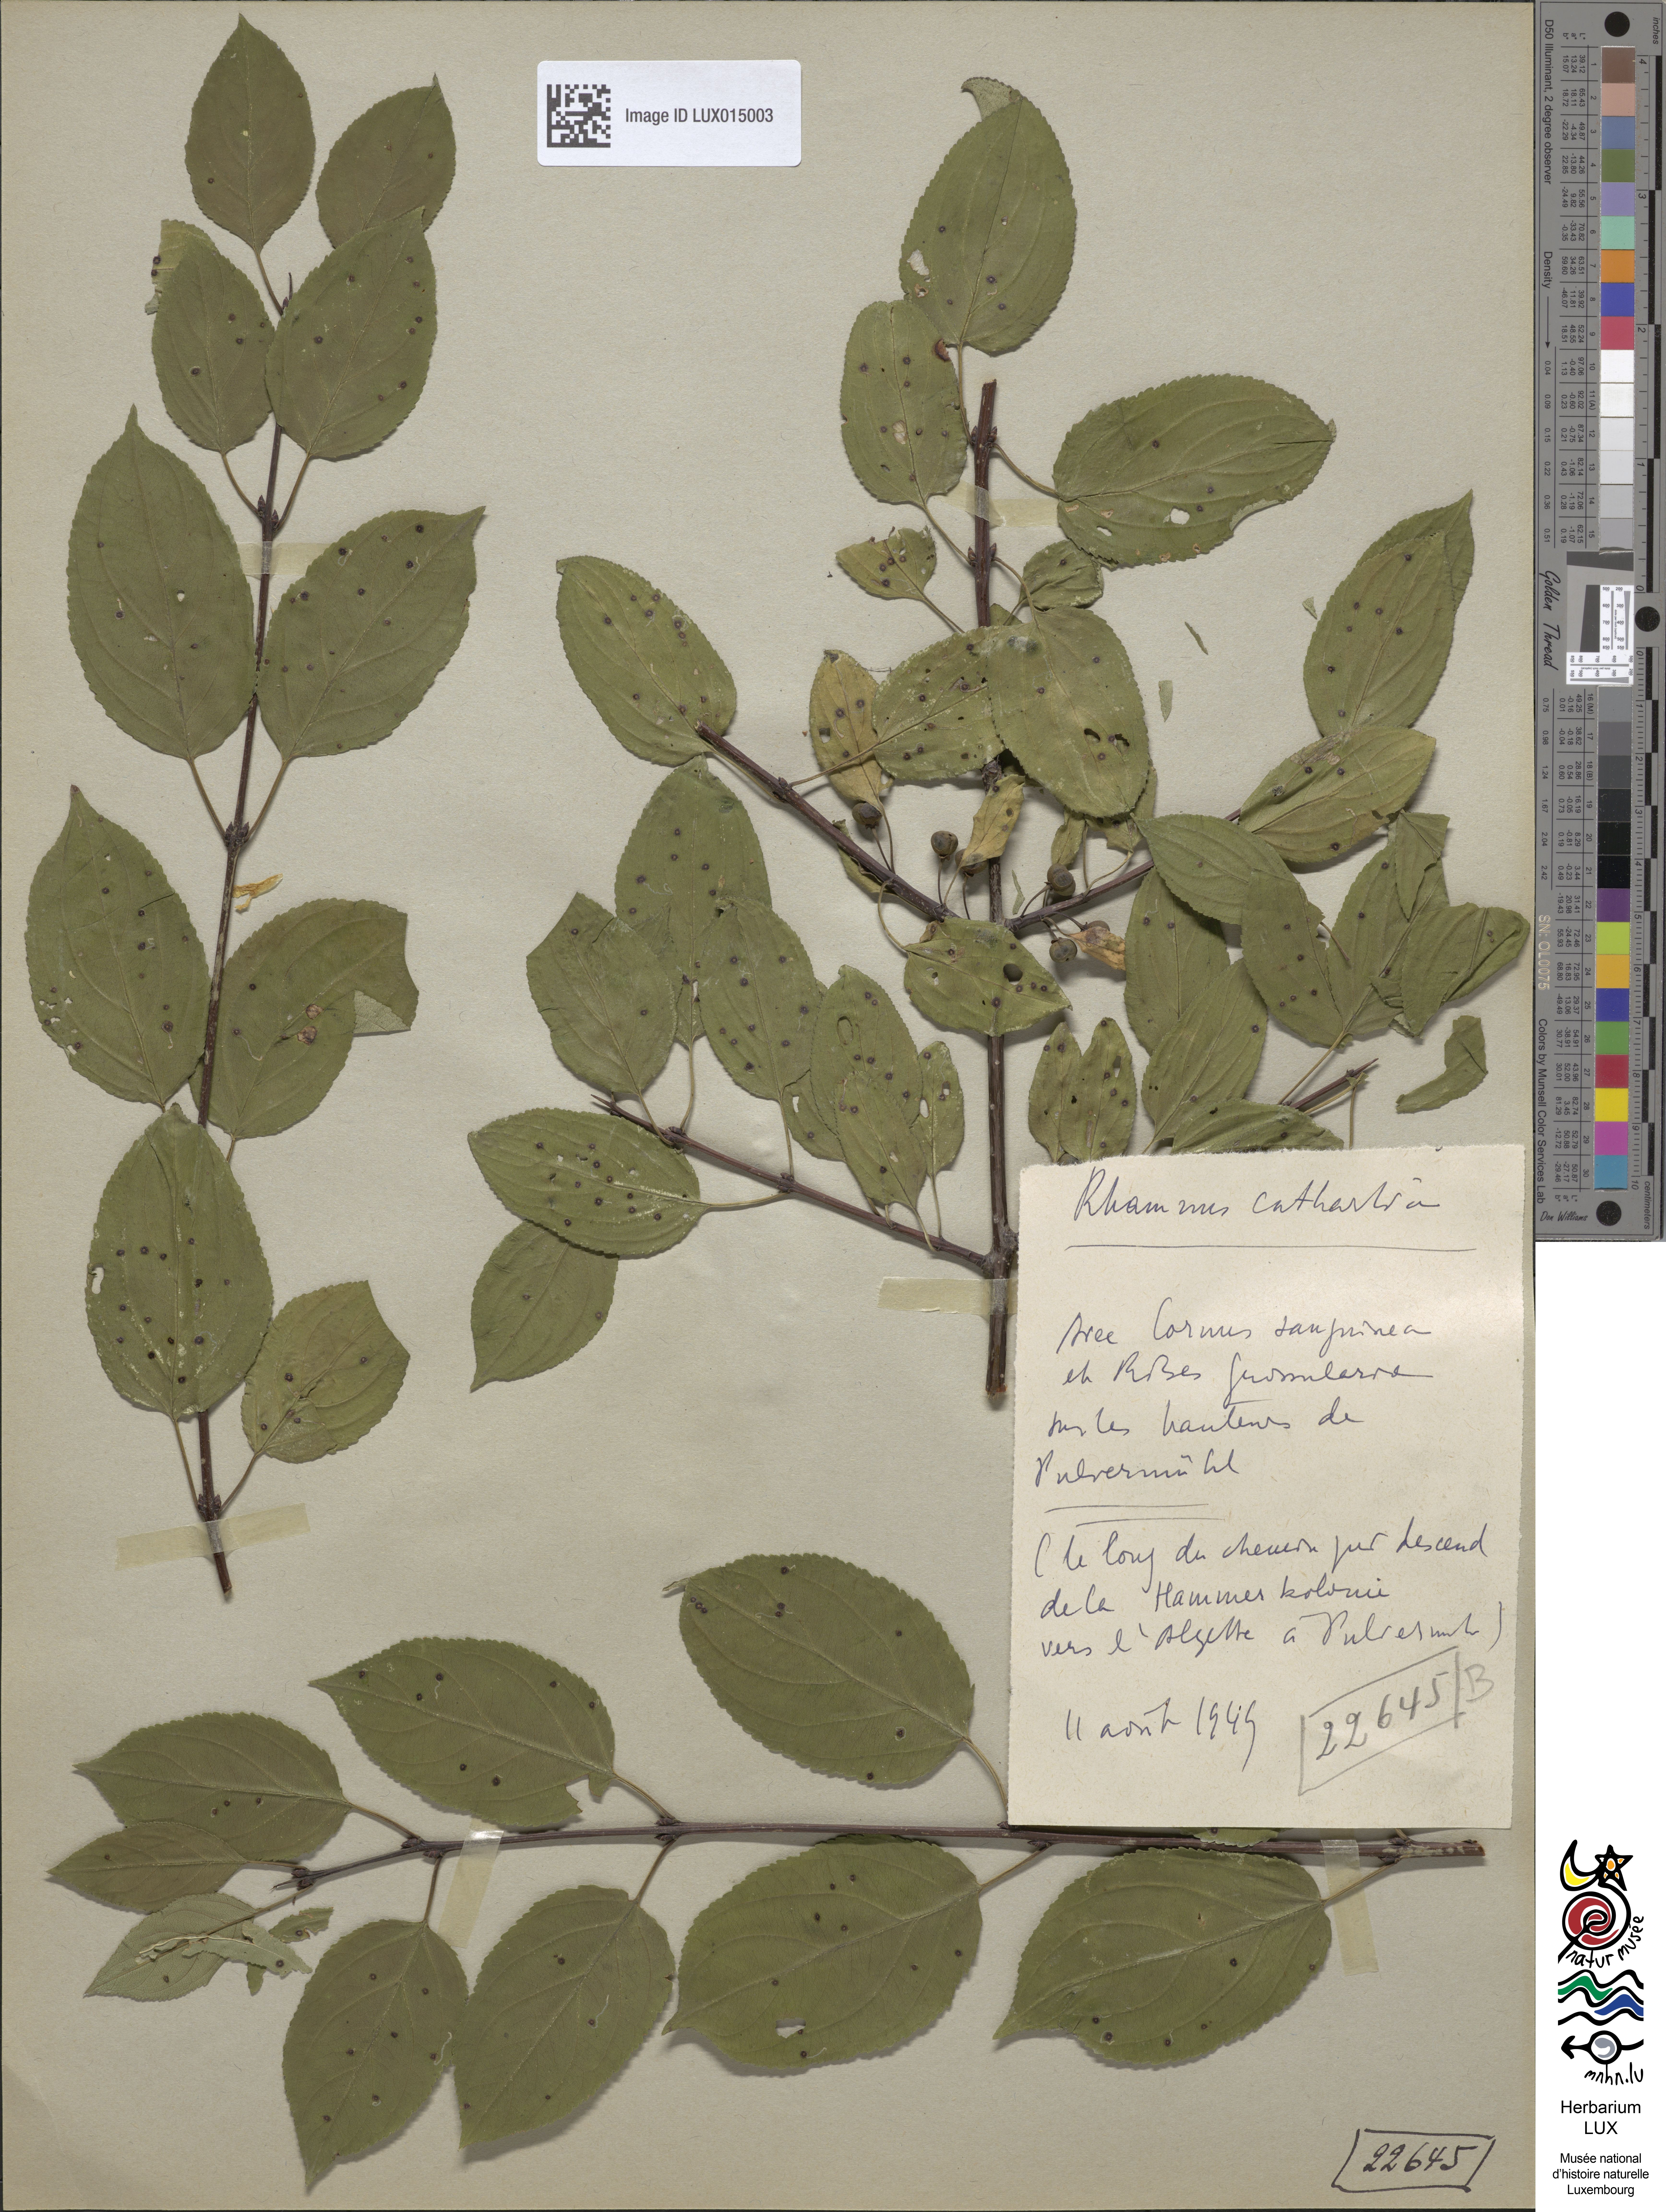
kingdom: Plantae
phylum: Tracheophyta
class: Magnoliopsida
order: Rosales
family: Rhamnaceae
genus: Rhamnus
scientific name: Rhamnus cathartica
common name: Common buckthorn
